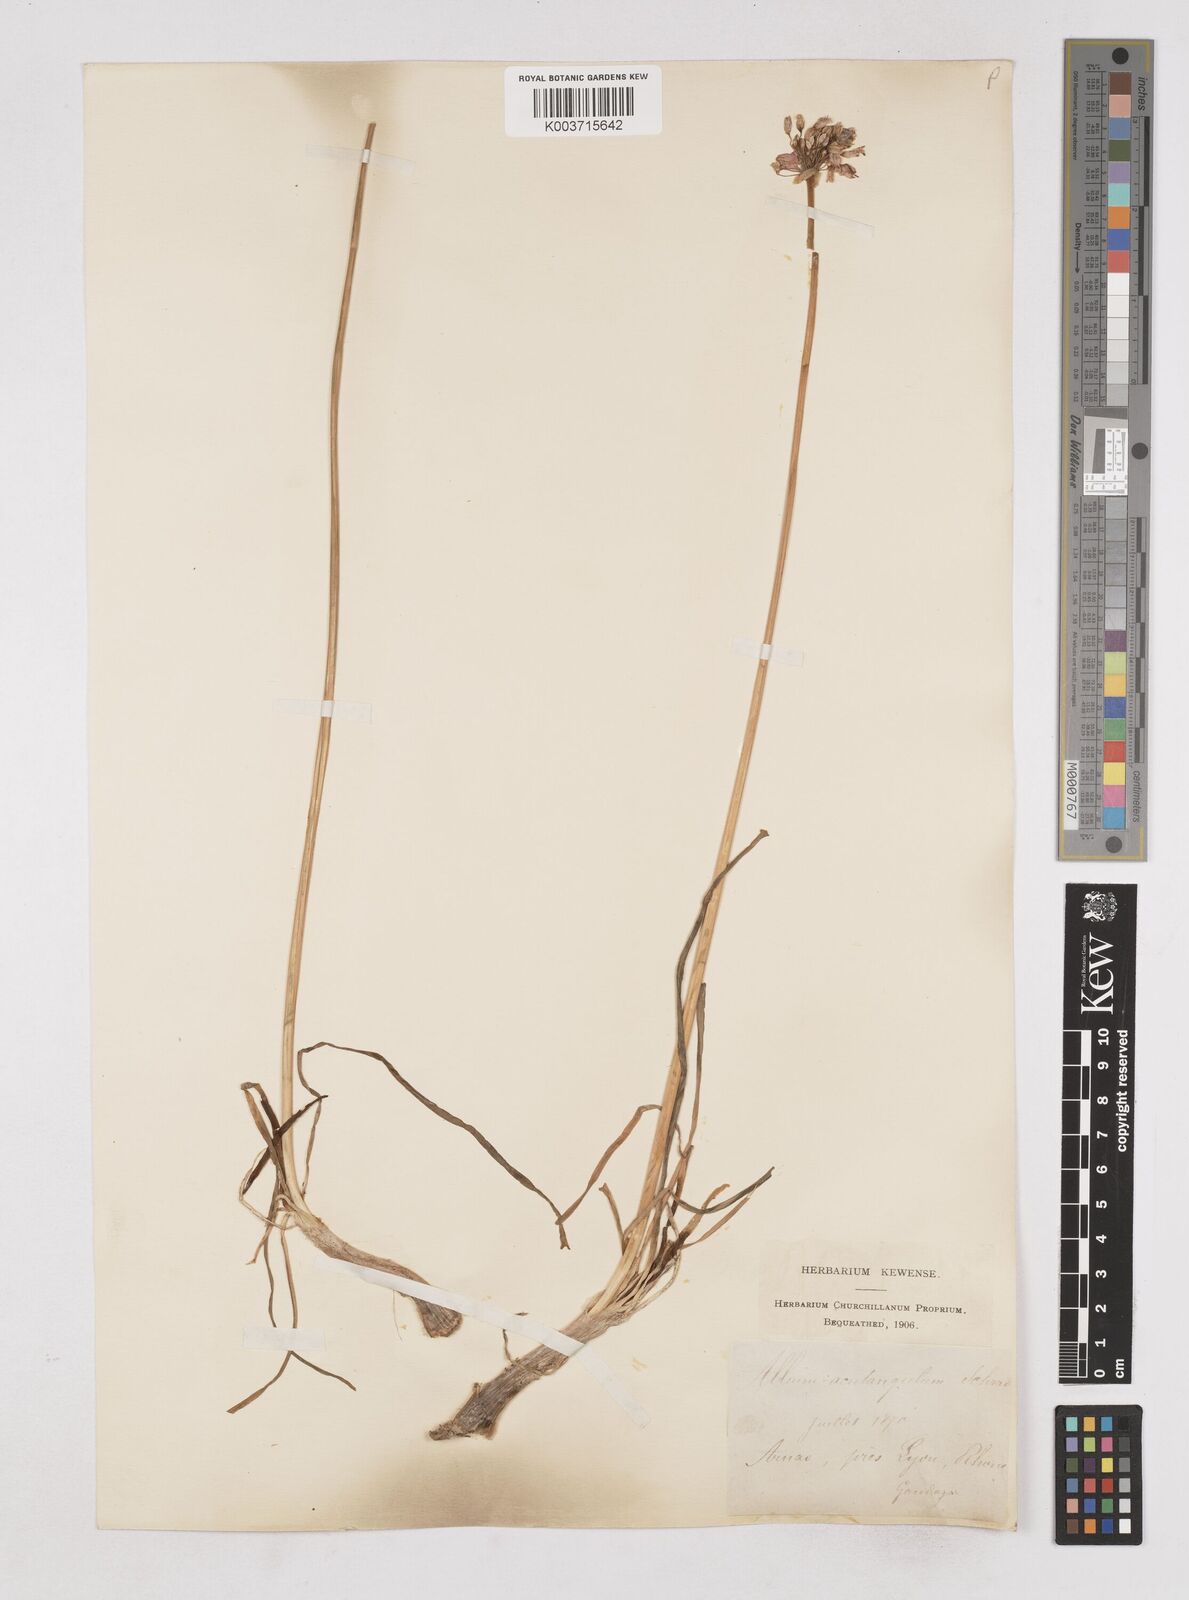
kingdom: Plantae
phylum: Tracheophyta
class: Liliopsida
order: Asparagales
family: Amaryllidaceae
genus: Allium
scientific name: Allium angulosum
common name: Mouse garlic
